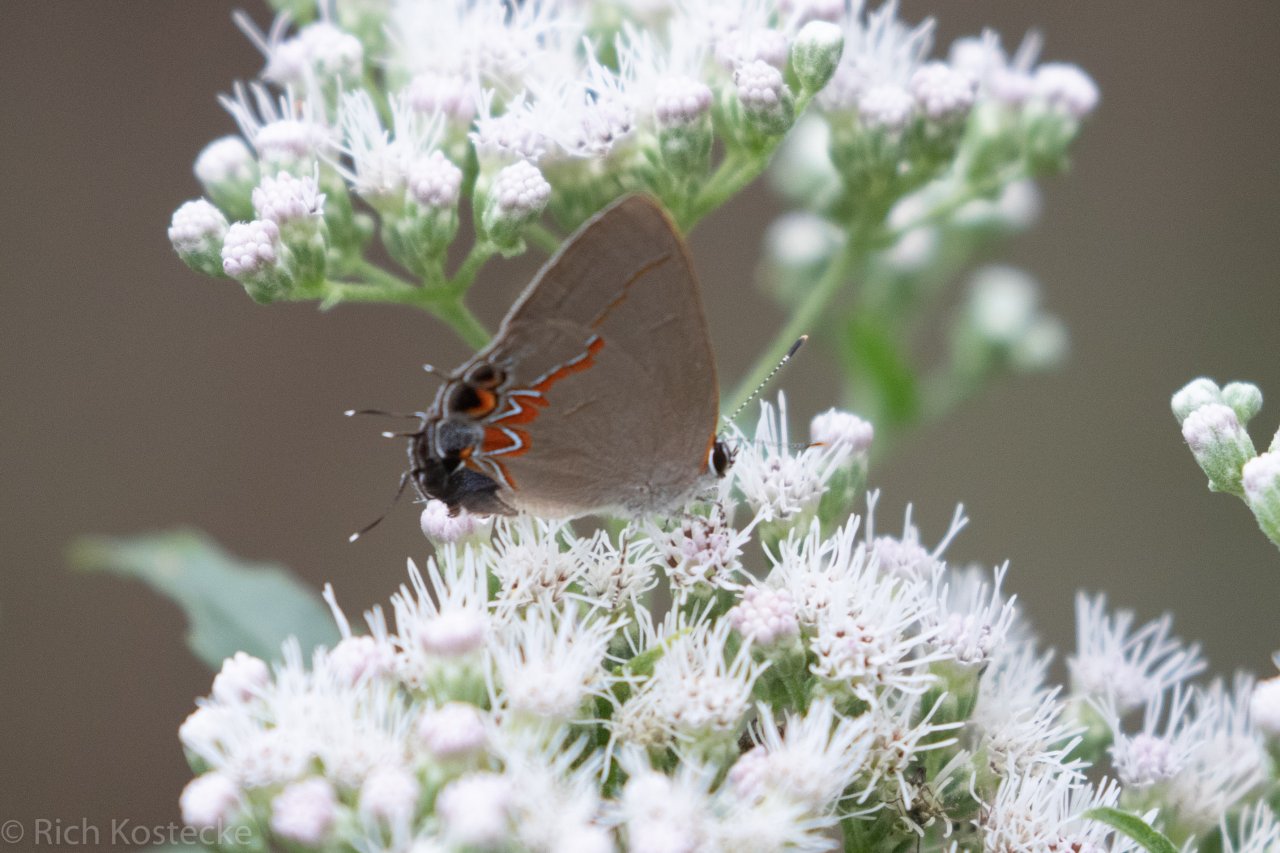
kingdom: Animalia
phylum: Arthropoda
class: Insecta
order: Lepidoptera
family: Lycaenidae
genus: Calycopis
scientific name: Calycopis isobeon
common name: Dusky-blue Groundstreak
